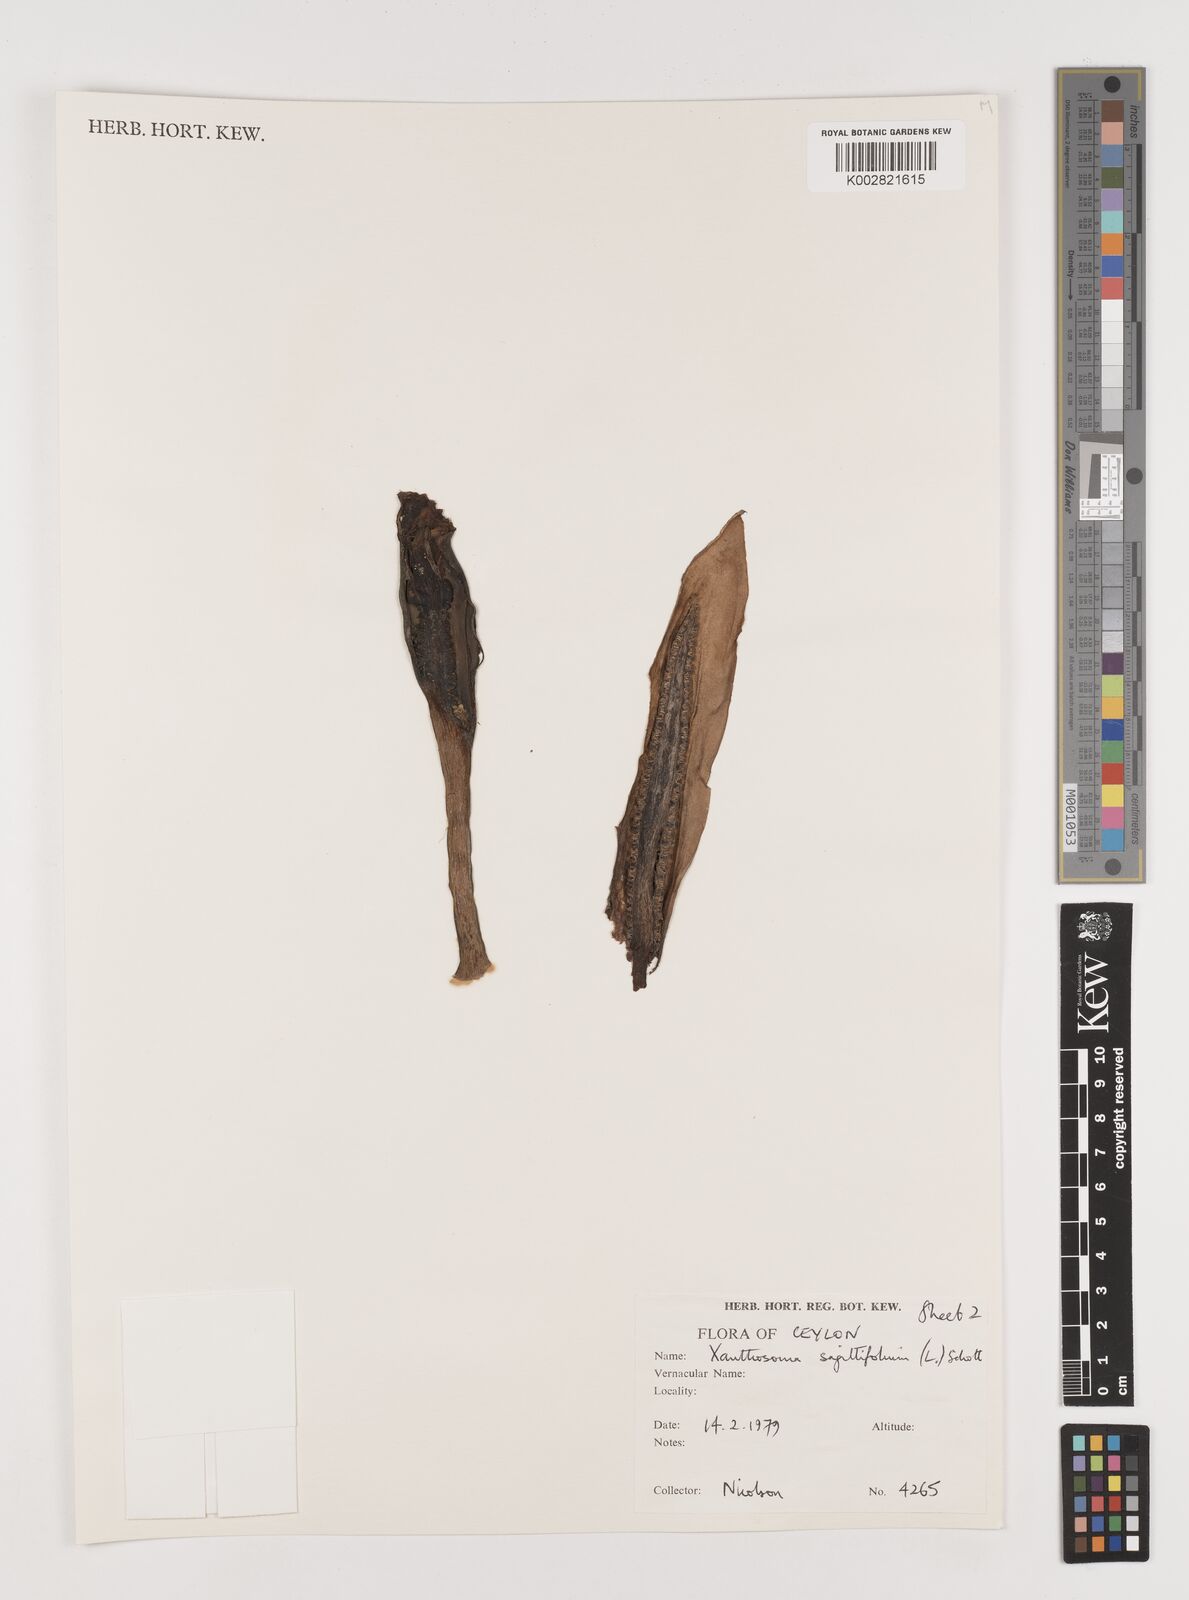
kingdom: Plantae
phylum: Tracheophyta
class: Liliopsida
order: Alismatales
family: Araceae
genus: Xanthosoma
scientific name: Xanthosoma sagittifolium
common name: Arrowleaf elephant's ear
